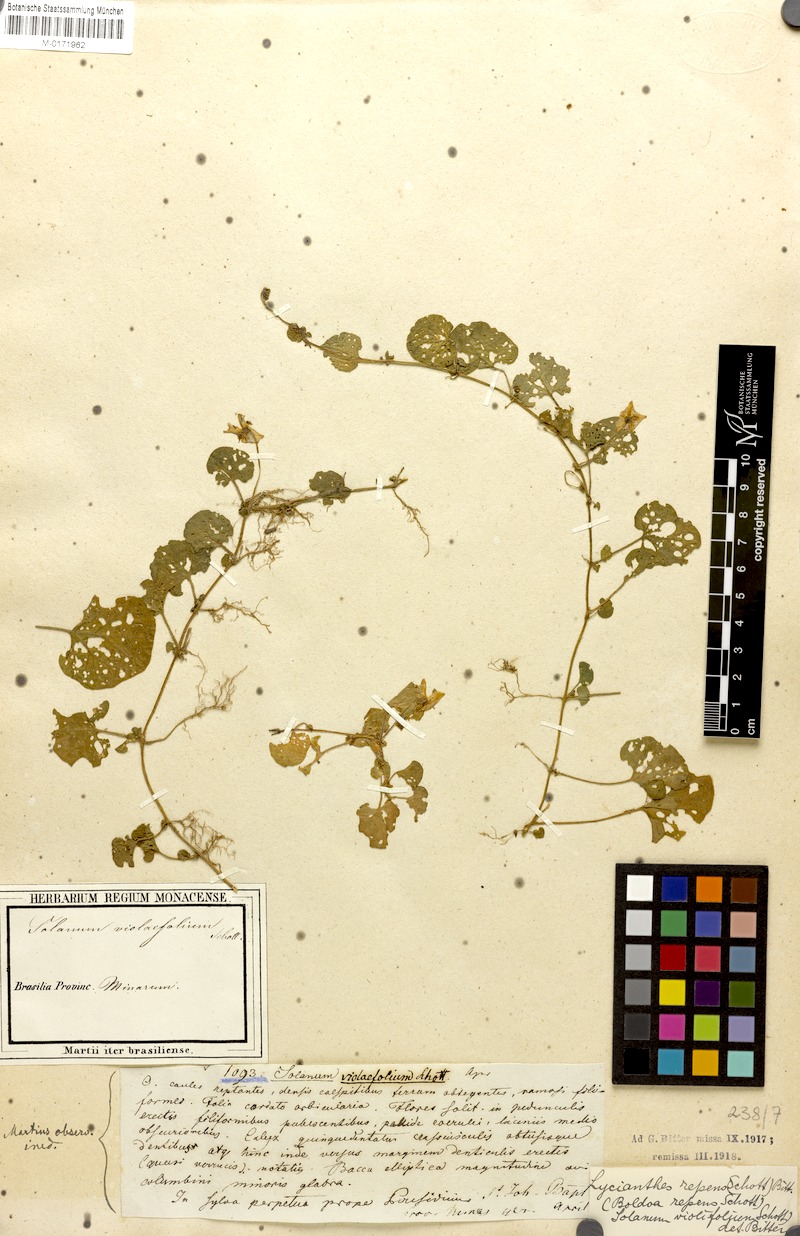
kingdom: Plantae
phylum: Tracheophyta
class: Magnoliopsida
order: Solanales
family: Solanaceae
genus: Lycianthes
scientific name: Lycianthes repens
